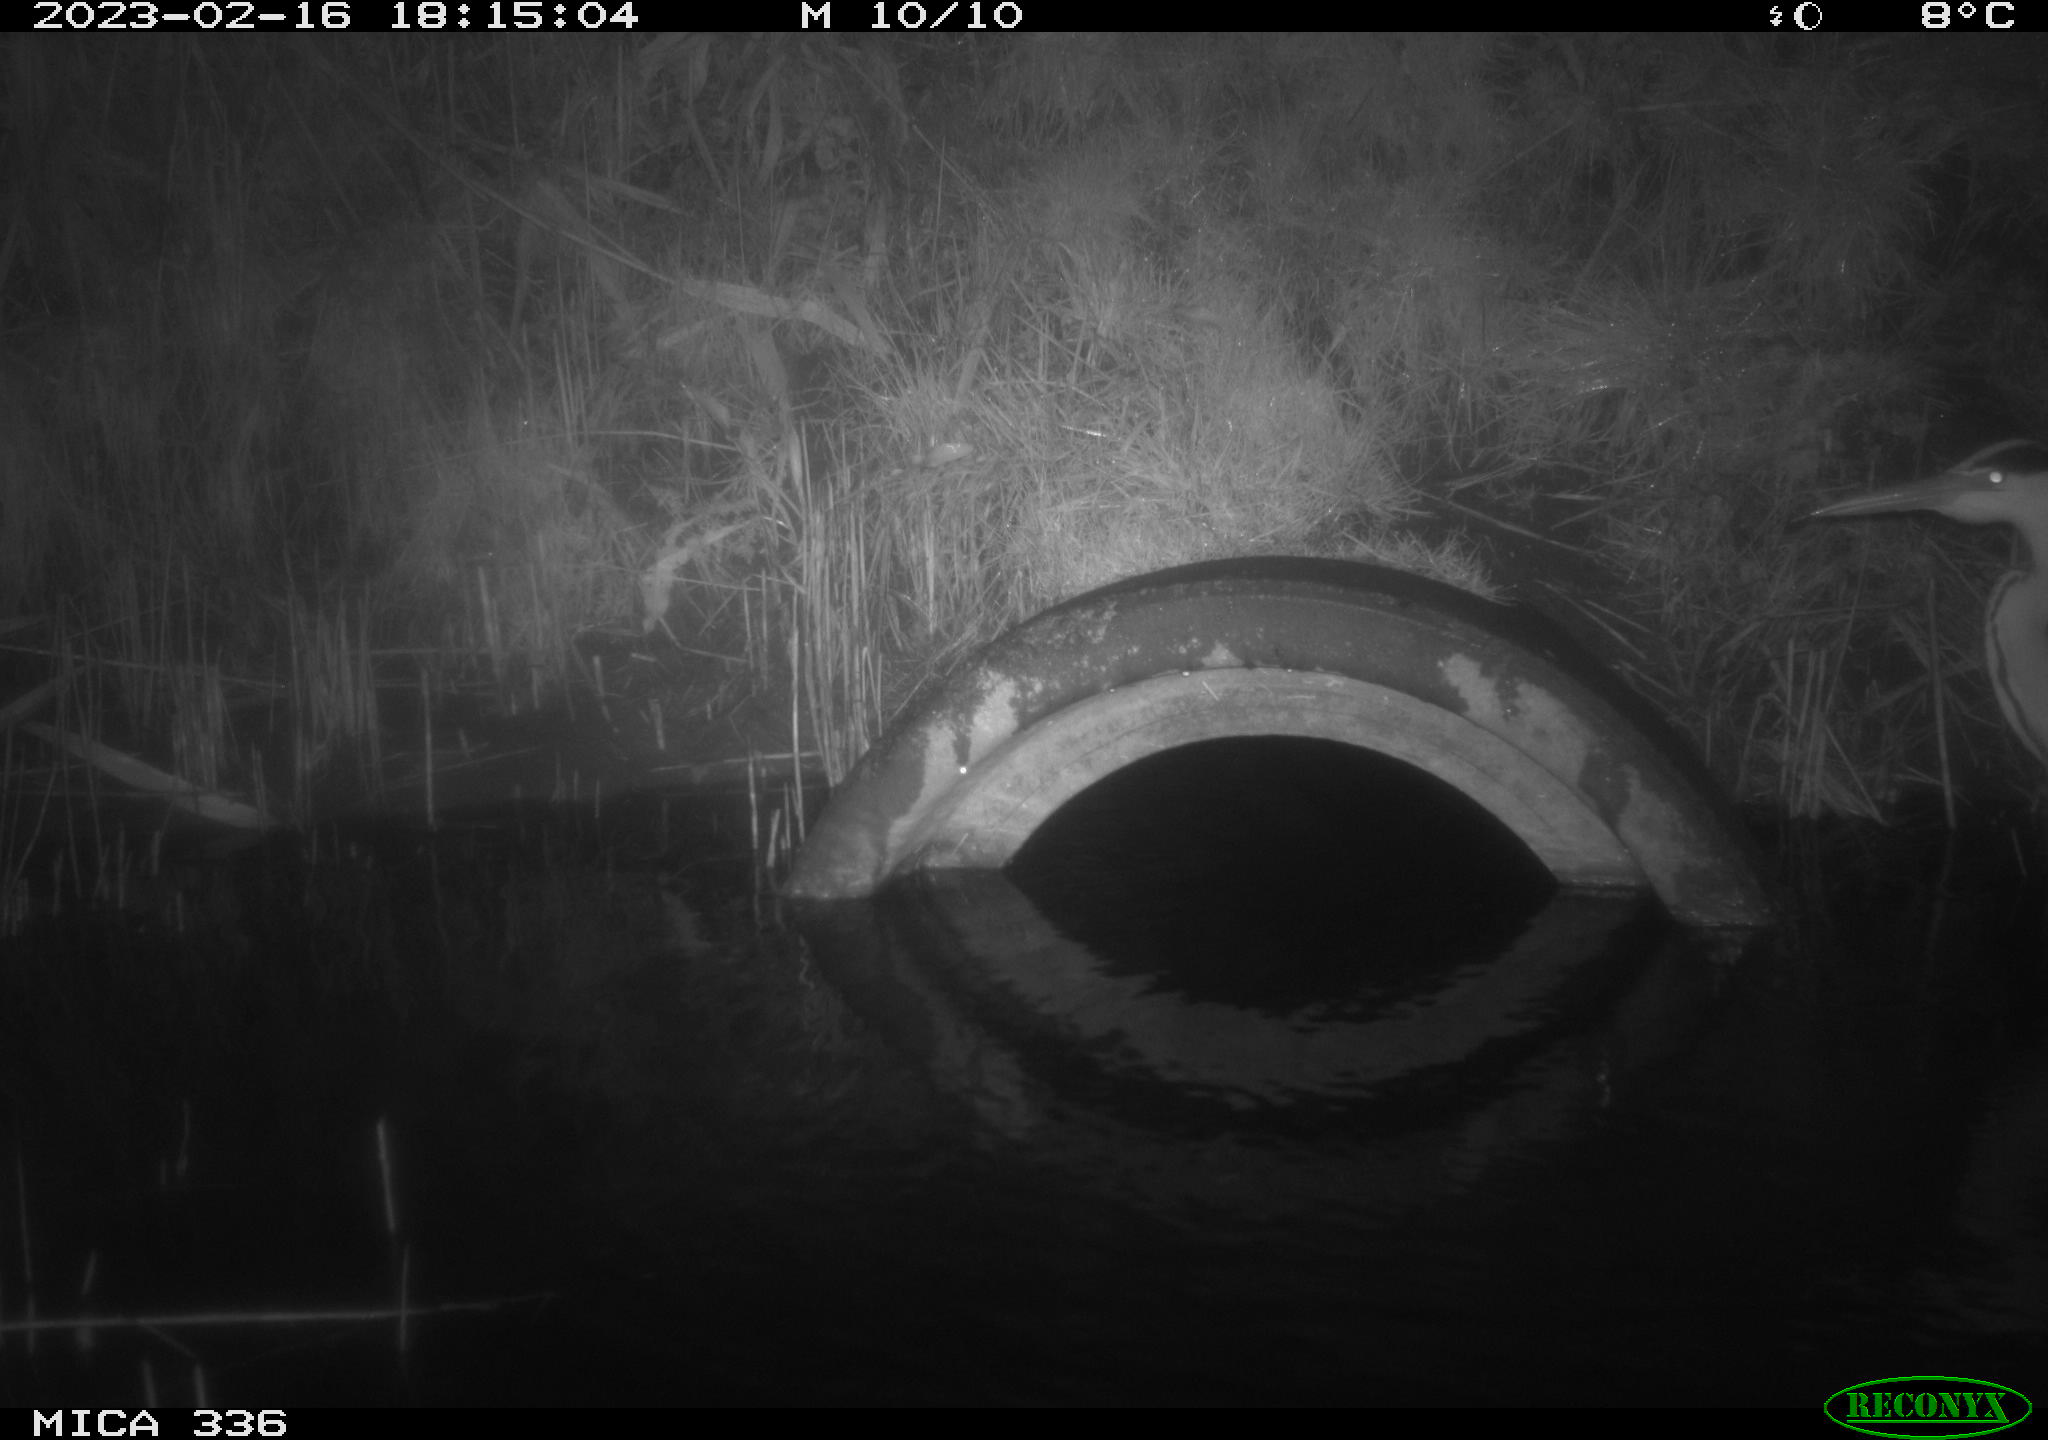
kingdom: Animalia
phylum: Chordata
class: Aves
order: Pelecaniformes
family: Ardeidae
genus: Ardea
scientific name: Ardea cinerea
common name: Grey heron
